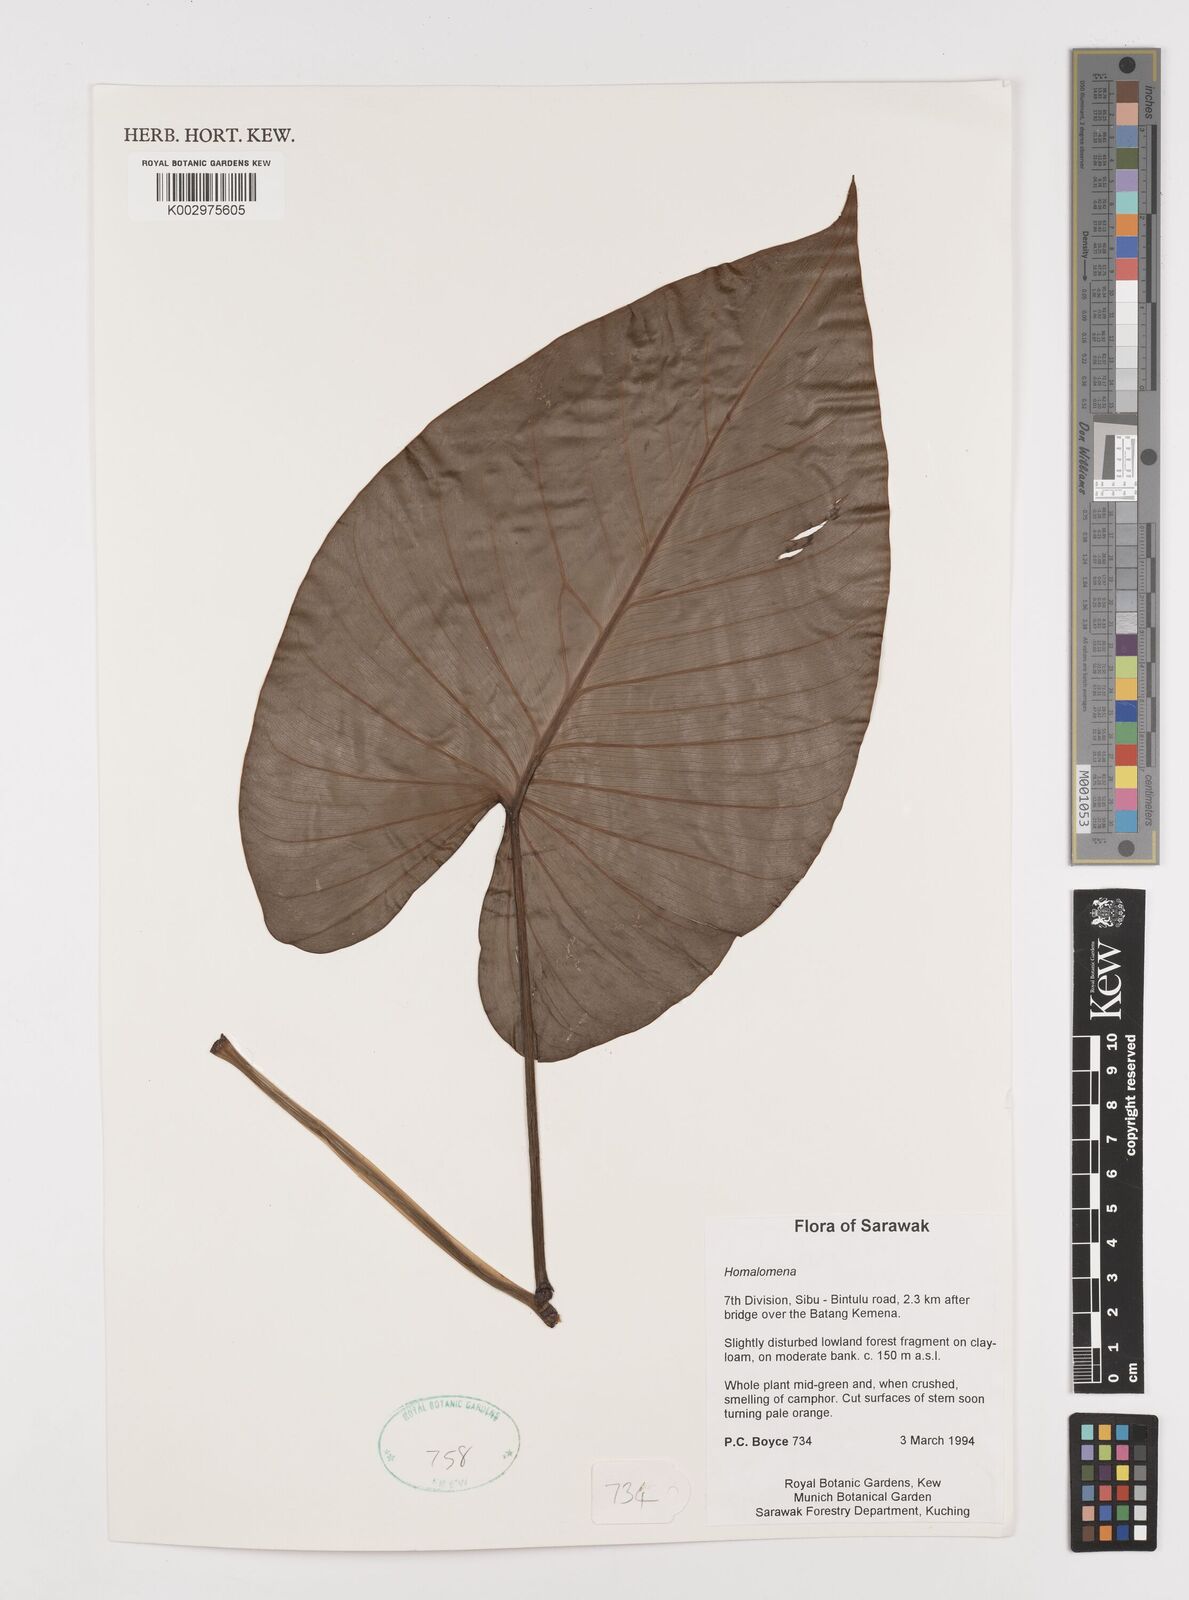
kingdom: Plantae
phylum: Tracheophyta
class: Liliopsida
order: Alismatales
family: Araceae
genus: Homalomena
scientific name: Homalomena
